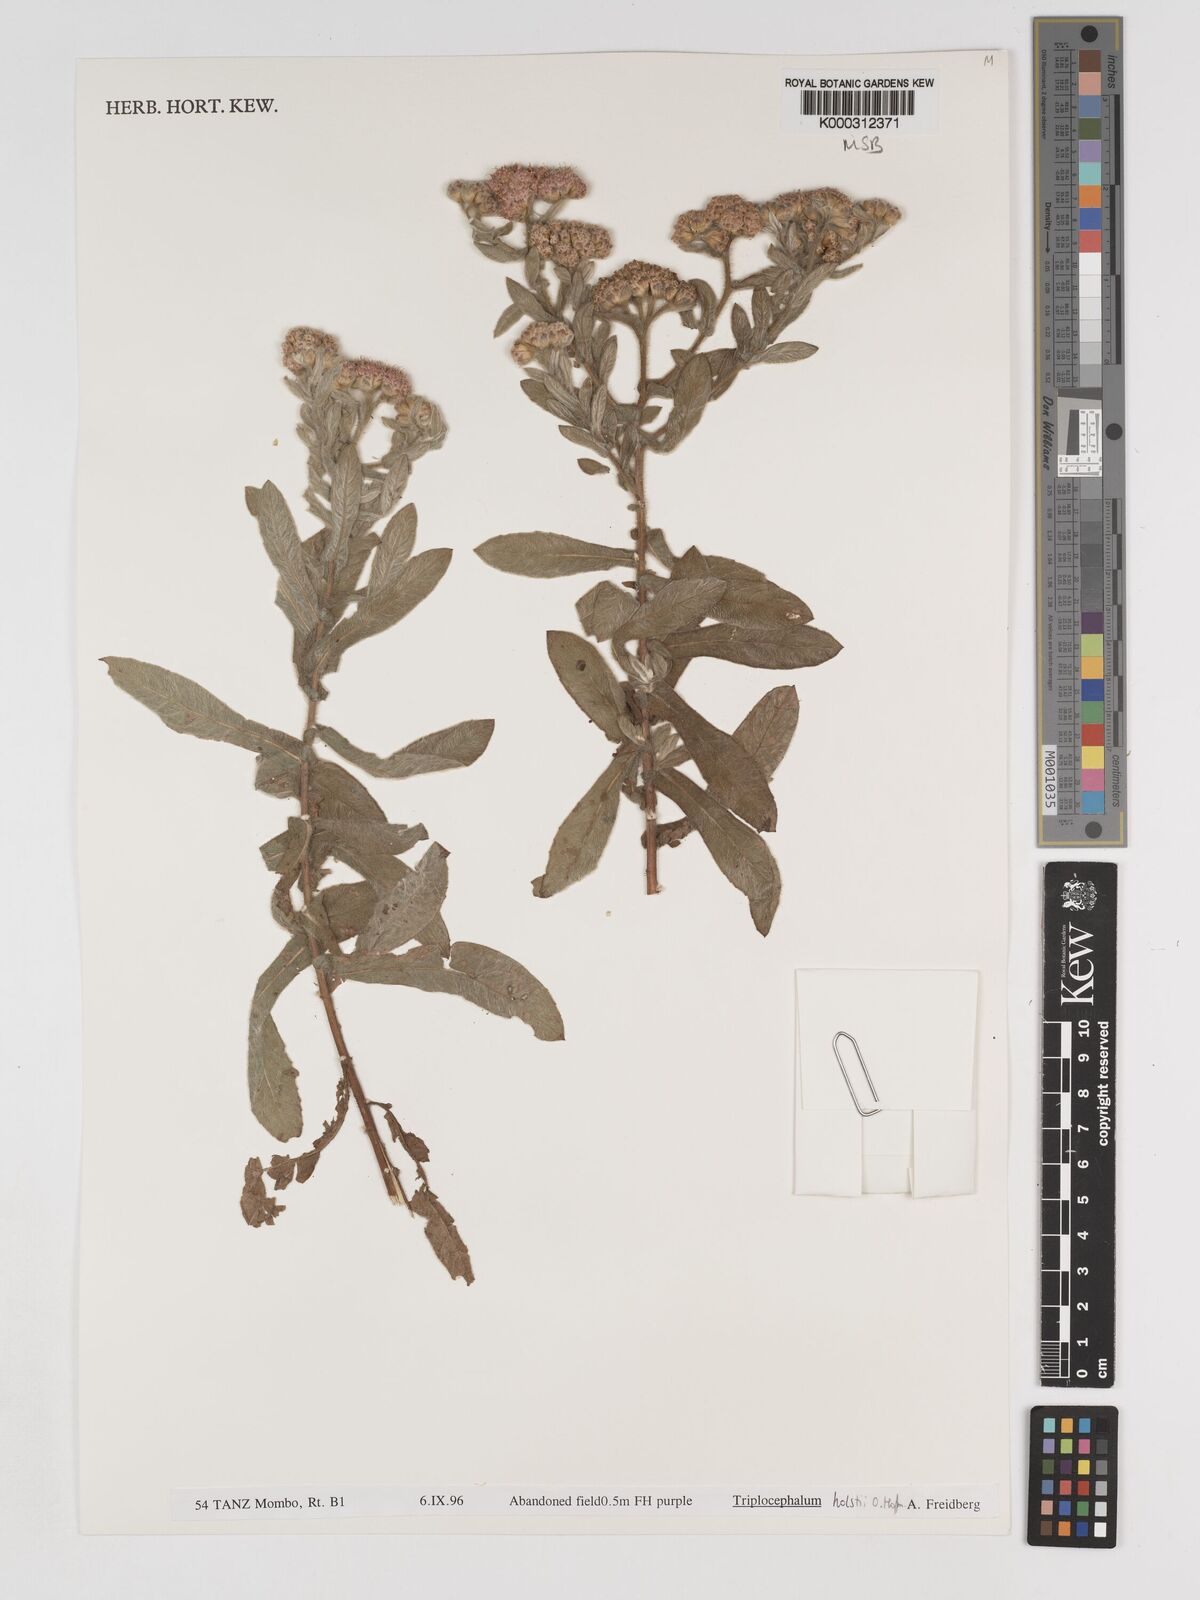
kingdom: Plantae
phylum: Tracheophyta
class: Magnoliopsida
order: Asterales
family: Asteraceae
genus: Triplocephalum
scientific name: Triplocephalum holstii
